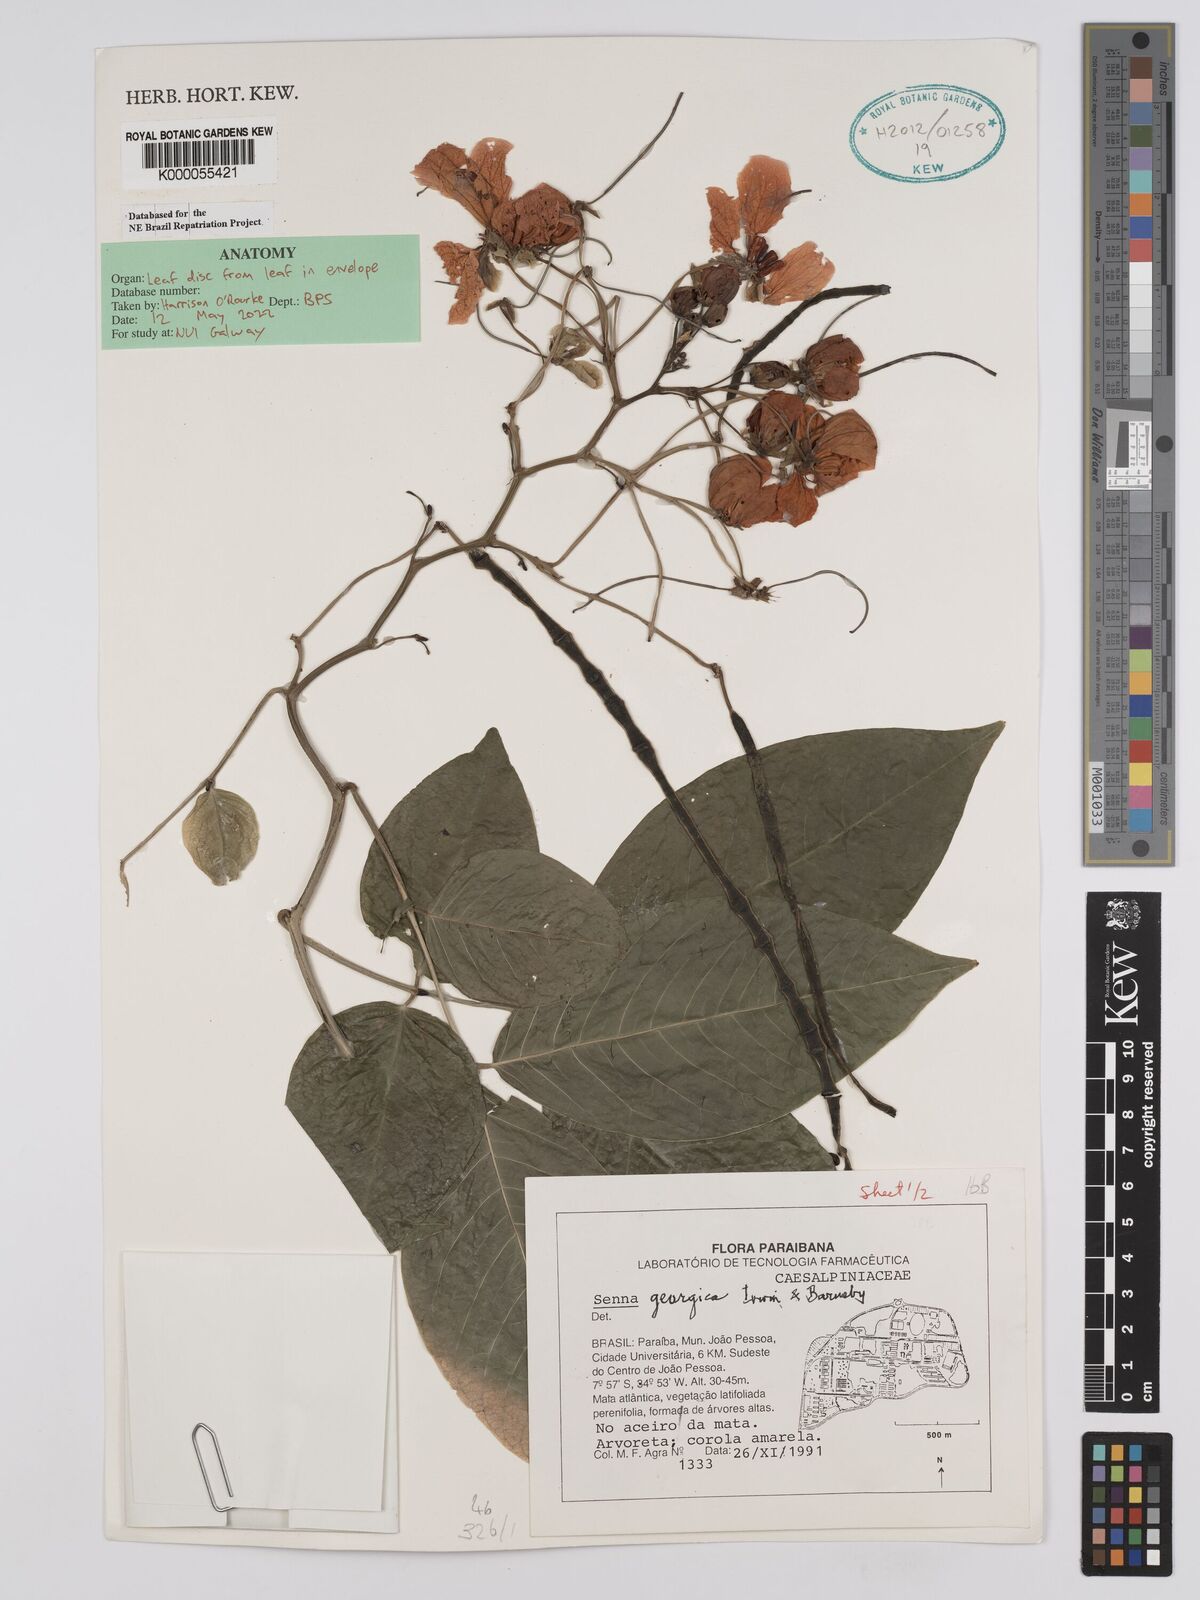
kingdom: Plantae
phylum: Tracheophyta
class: Magnoliopsida
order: Fabales
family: Fabaceae
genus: Senna
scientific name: Senna georgica
